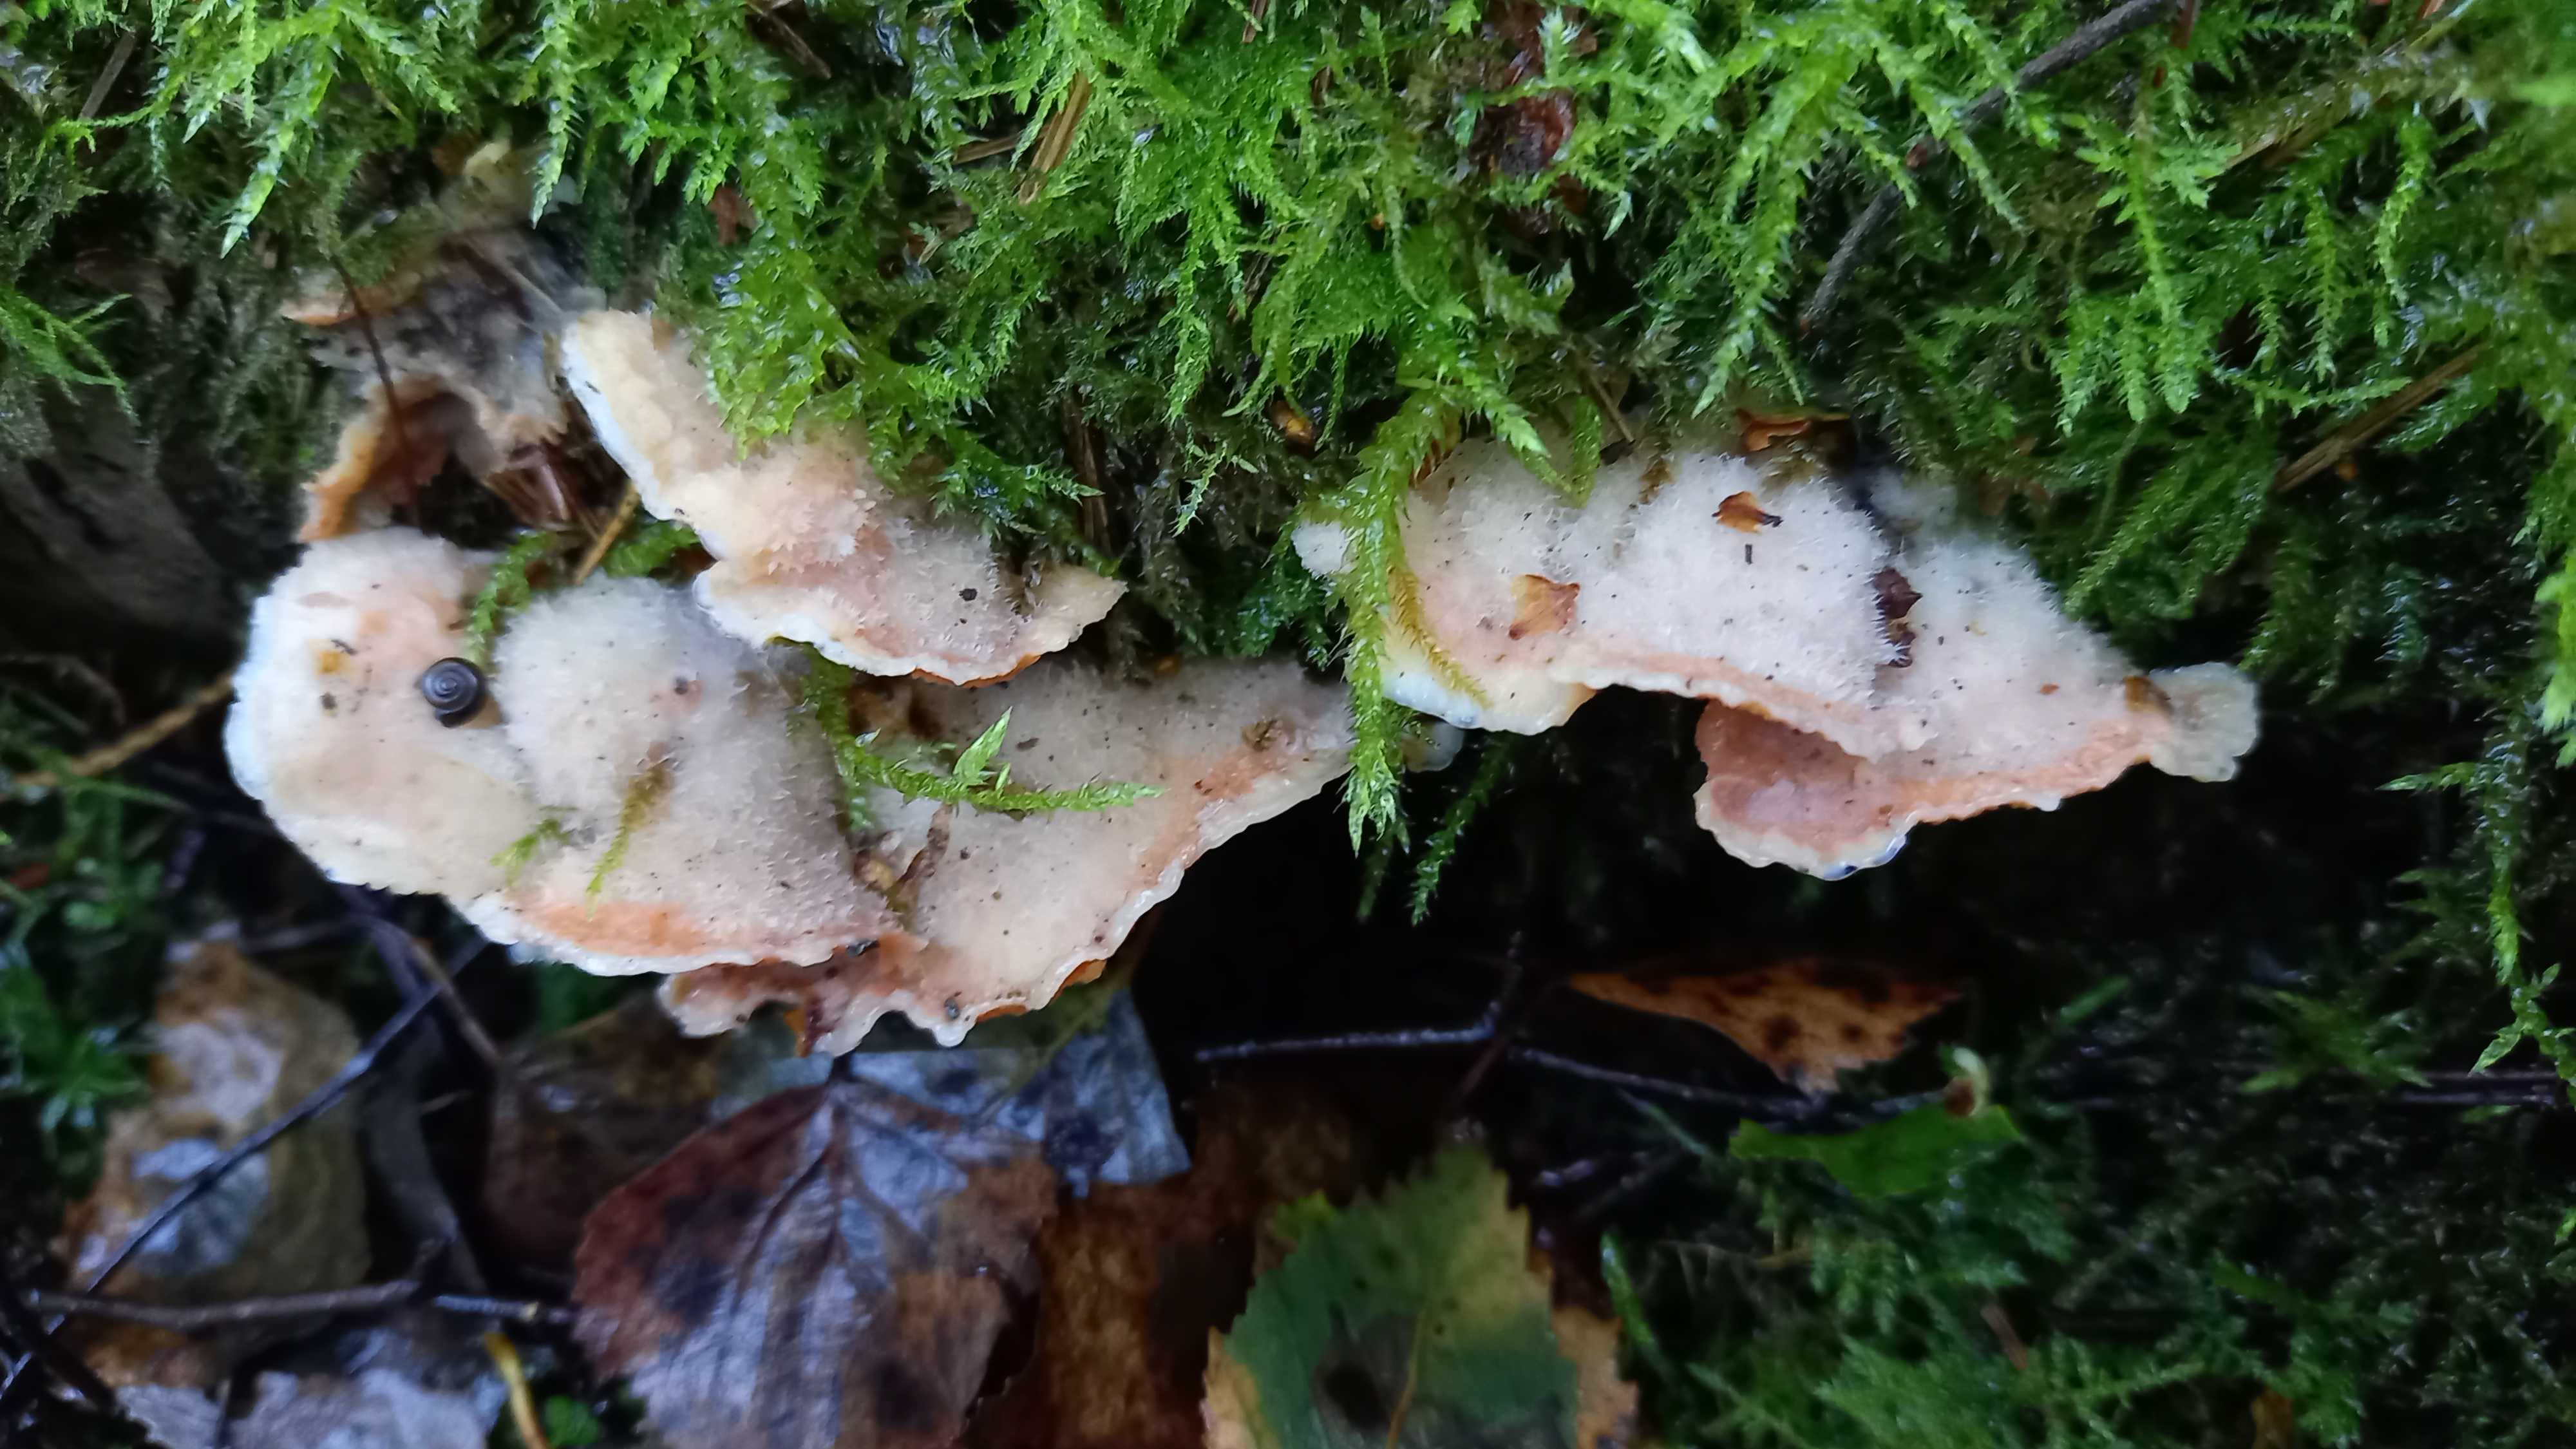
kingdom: Fungi
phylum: Basidiomycota
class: Agaricomycetes
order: Polyporales
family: Meruliaceae
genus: Phlebia
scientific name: Phlebia tremellosa
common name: bævrende åresvamp
